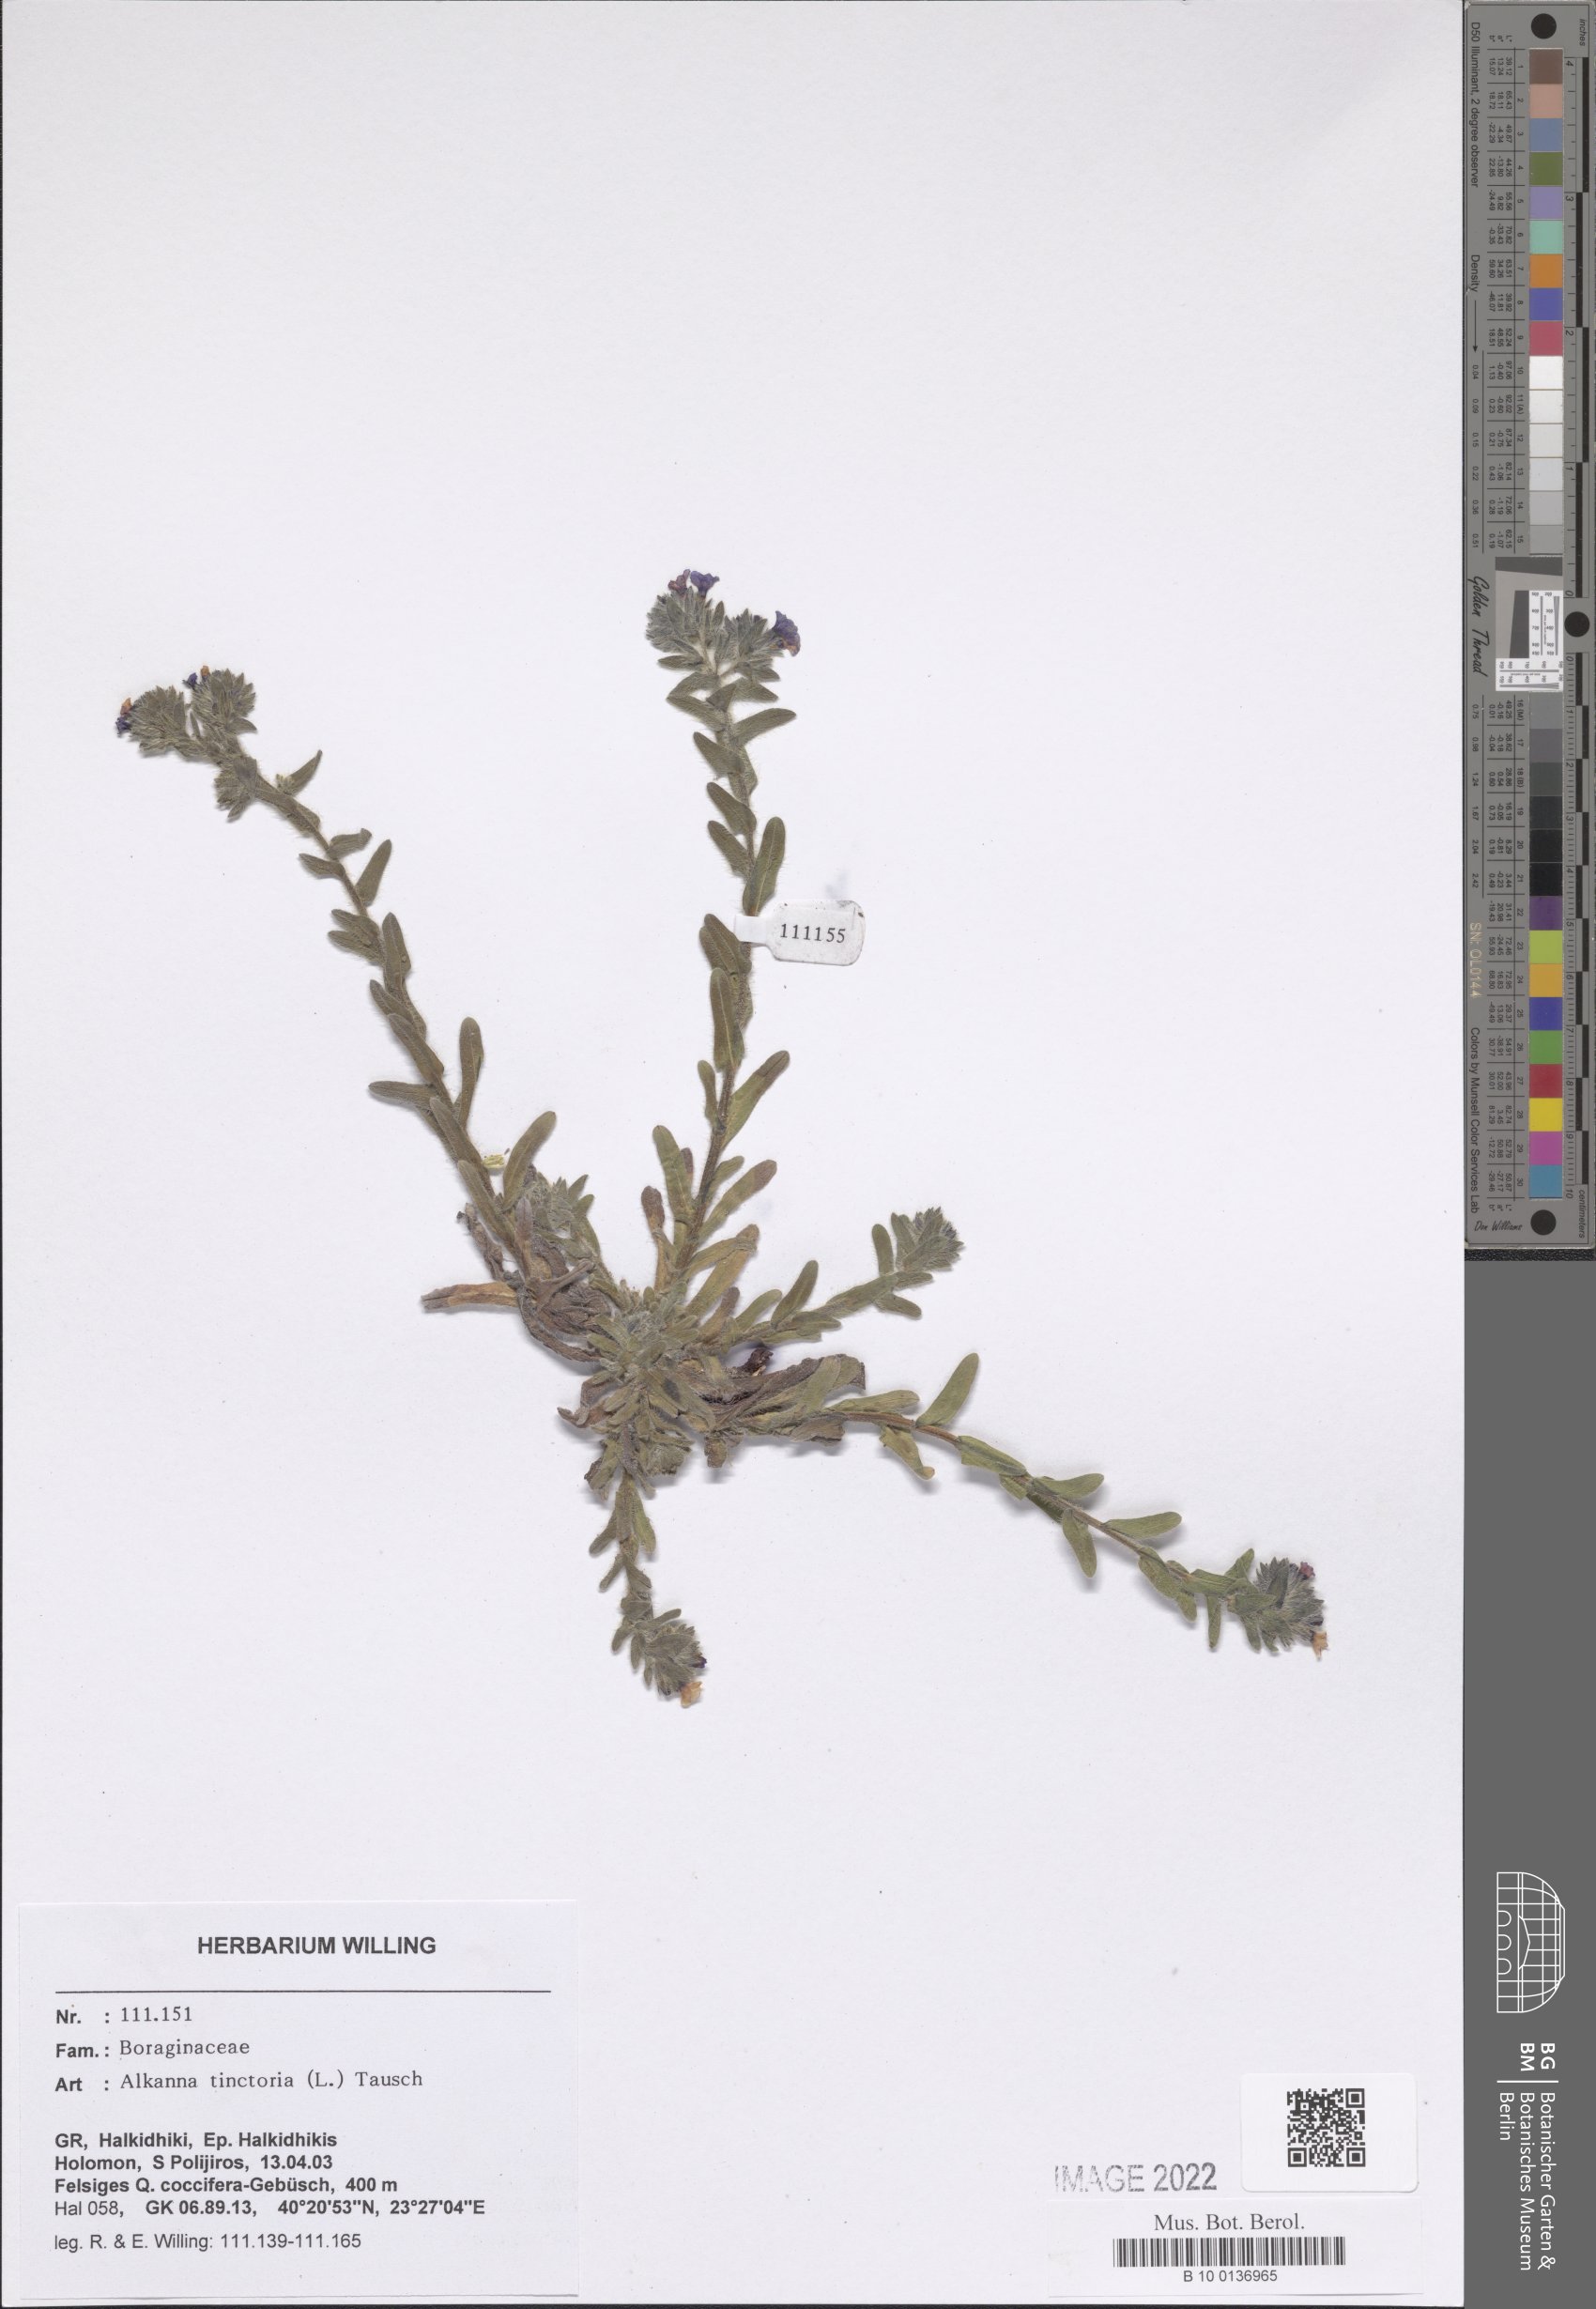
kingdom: Plantae
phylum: Tracheophyta
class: Magnoliopsida
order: Fabales
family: Fabaceae
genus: Medicago
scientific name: Medicago monspeliaca
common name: Hairy medick
